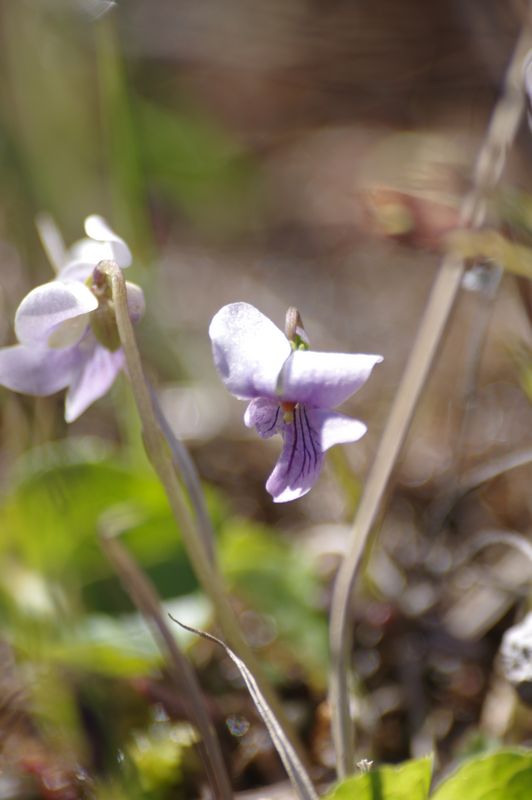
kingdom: Plantae
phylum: Tracheophyta
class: Magnoliopsida
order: Malpighiales
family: Violaceae
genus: Viola
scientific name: Viola palustris
